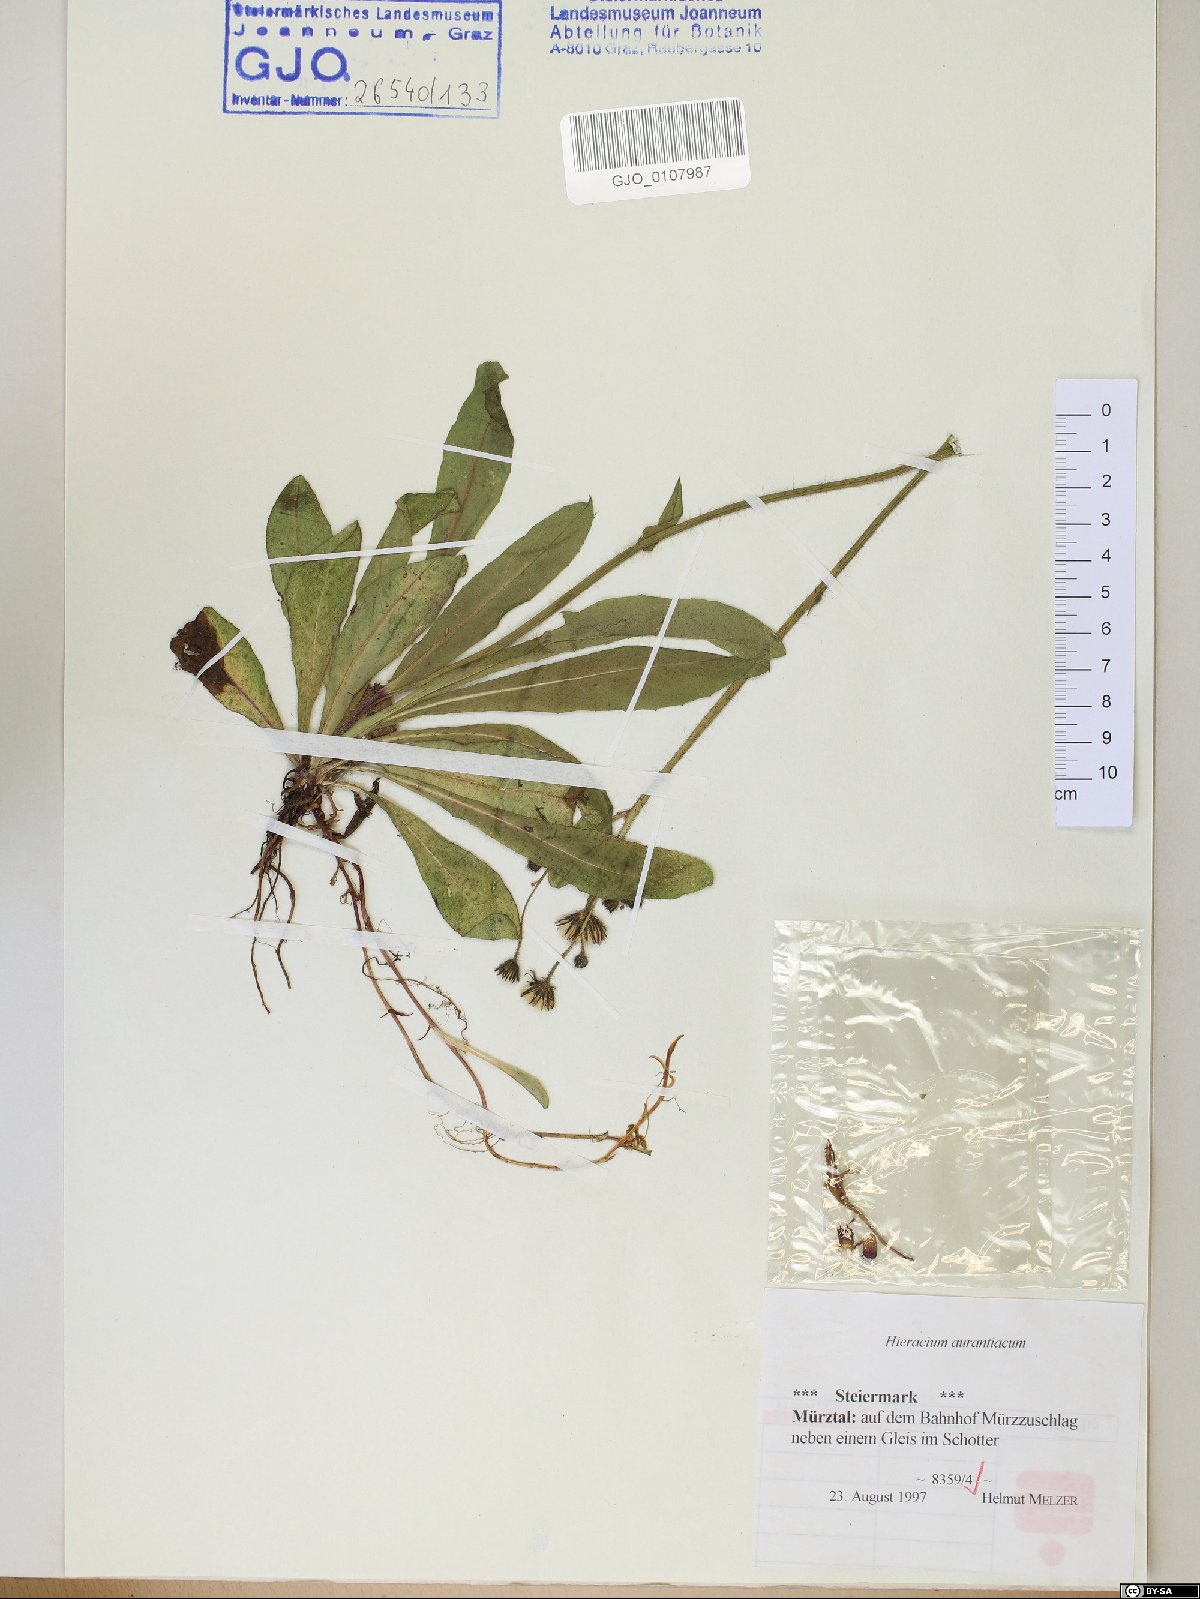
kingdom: Plantae
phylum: Tracheophyta
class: Magnoliopsida
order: Asterales
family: Asteraceae
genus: Pilosella
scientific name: Pilosella aurantiaca
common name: Fox-and-cubs
